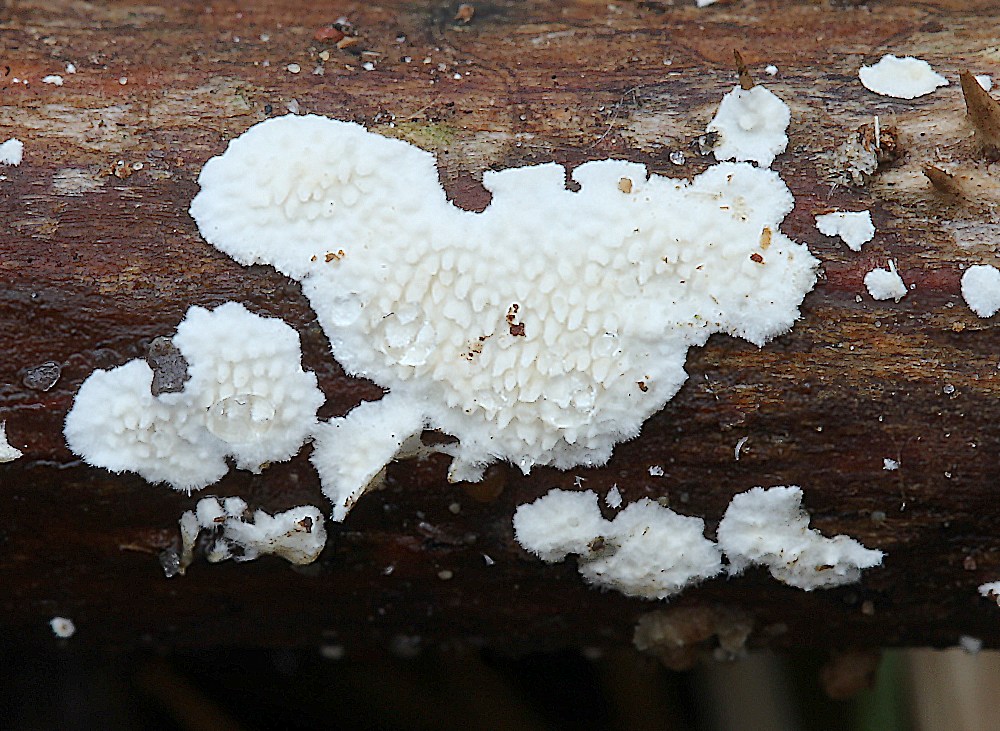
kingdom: Fungi
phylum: Basidiomycota
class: Agaricomycetes
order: Polyporales
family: Steccherinaceae
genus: Steccherinum
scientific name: Steccherinum ochraceum
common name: almindelig skønpig
